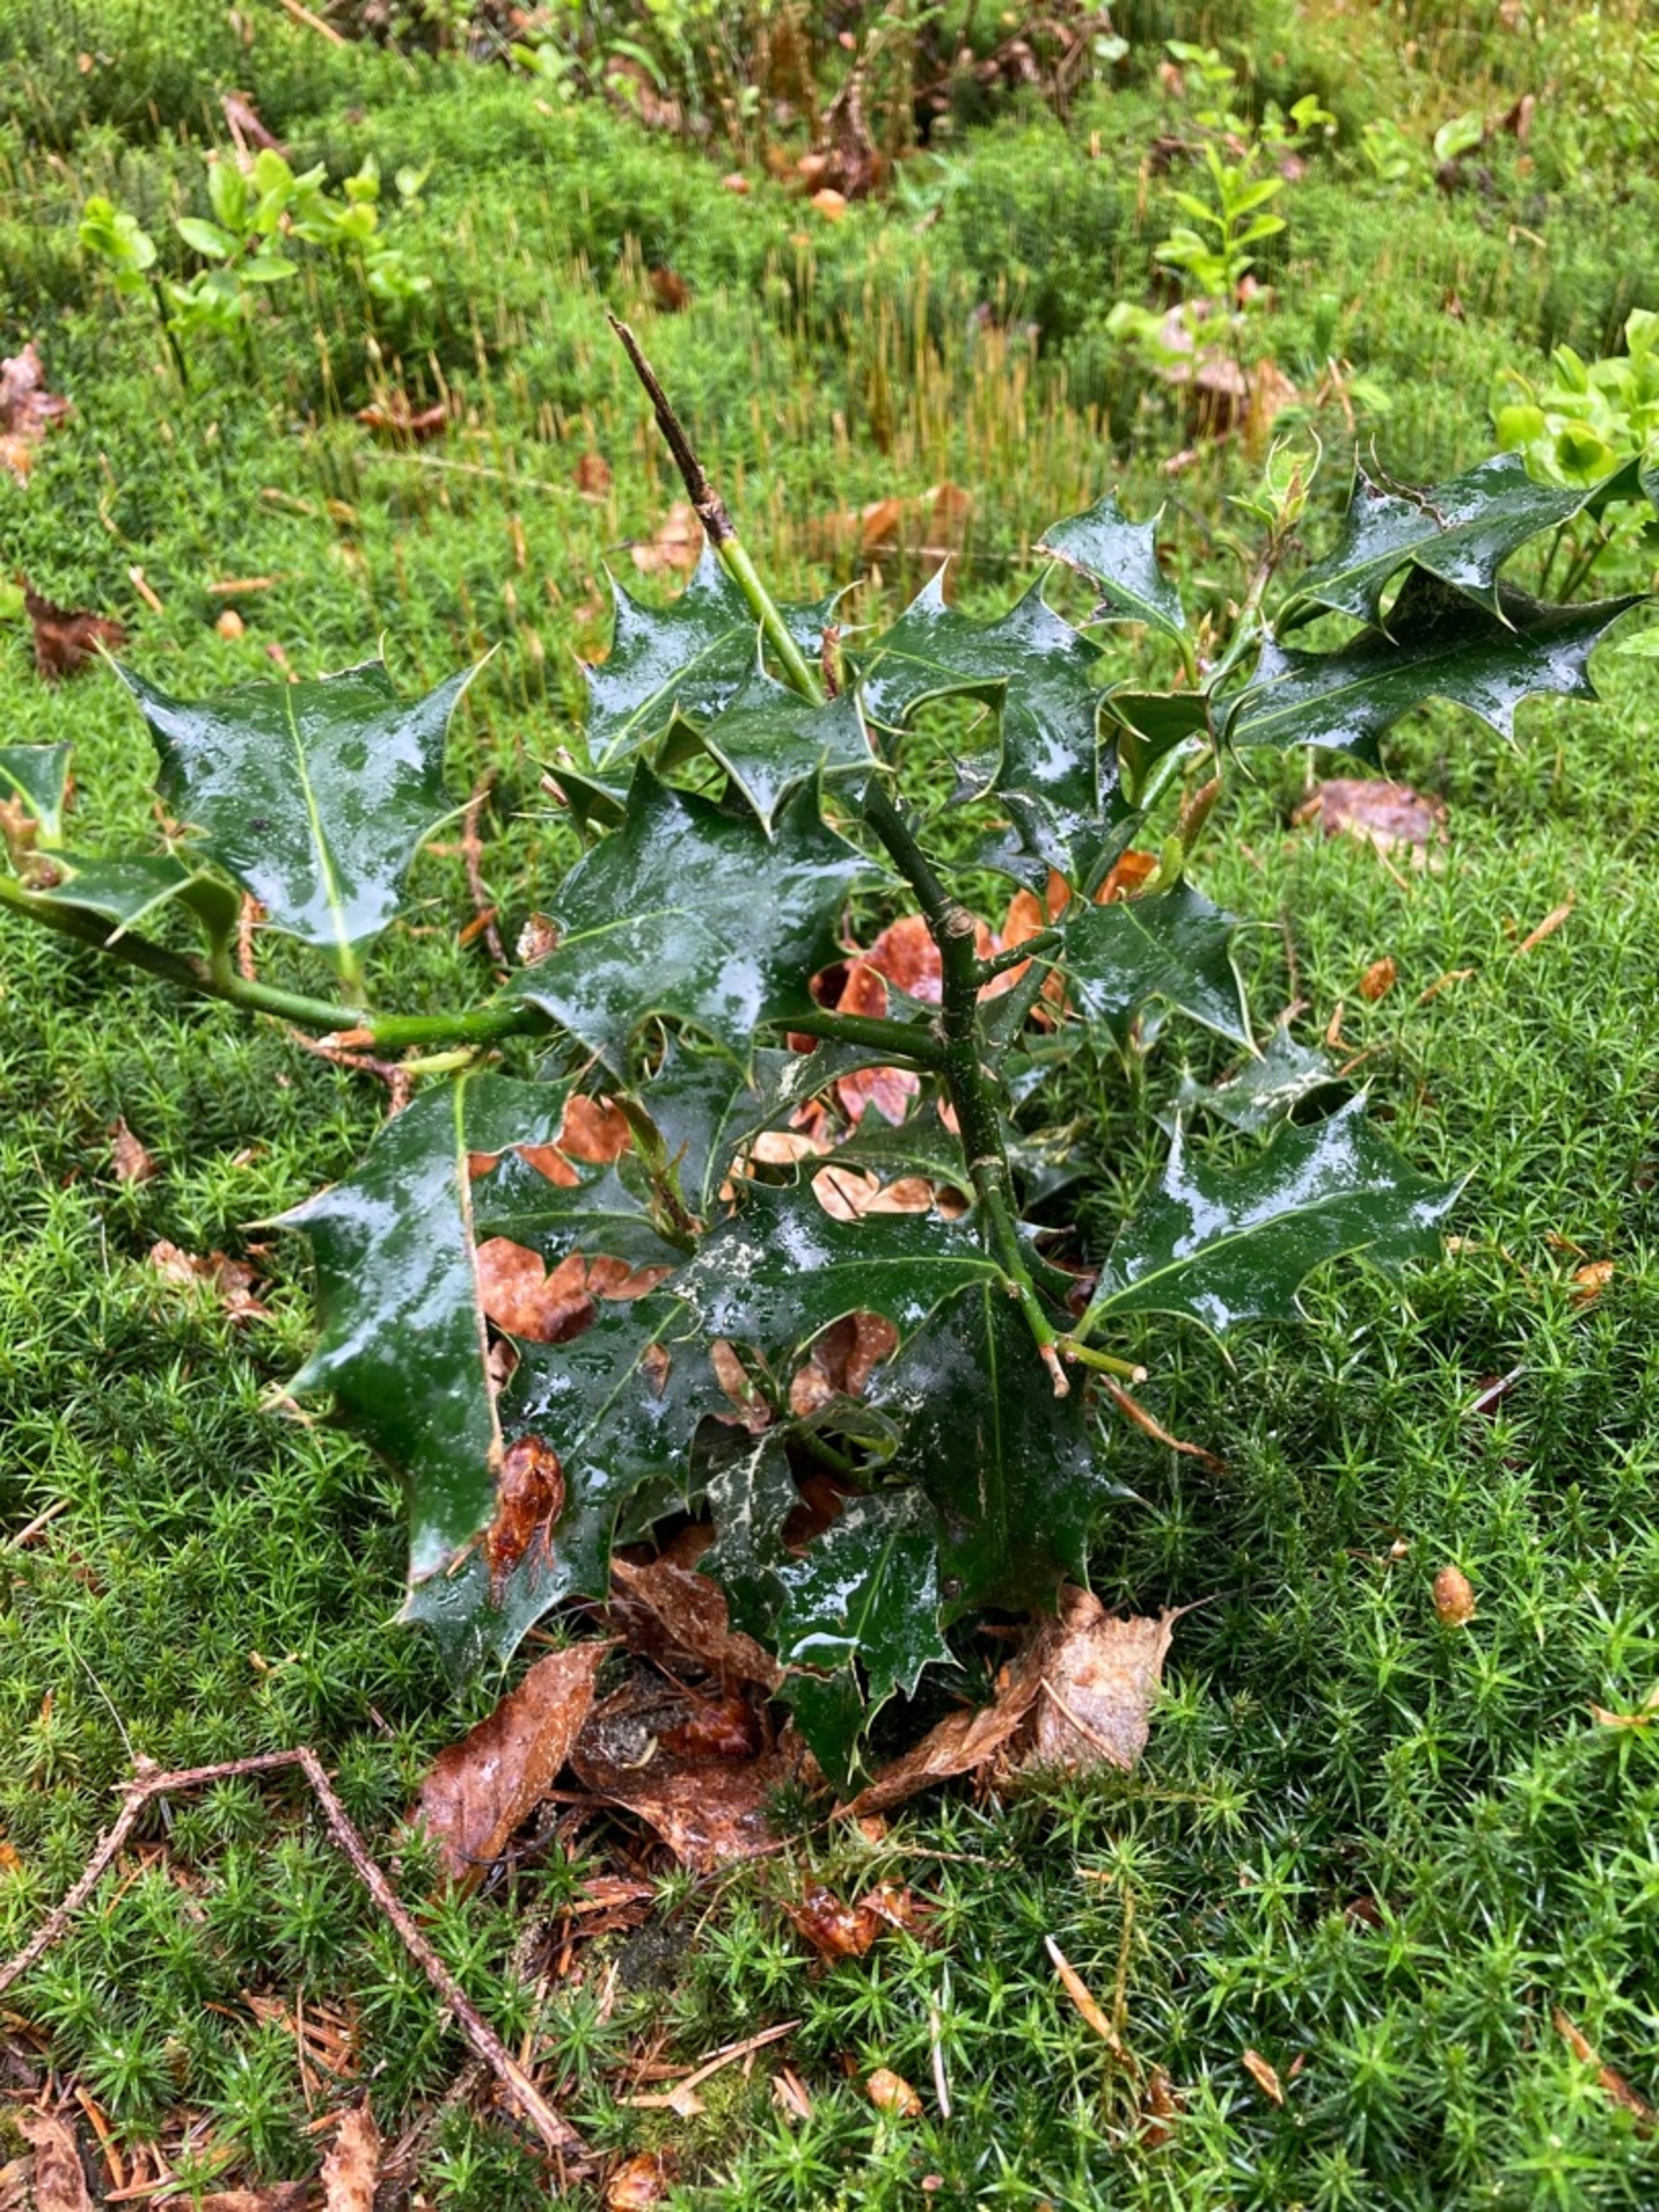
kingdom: Plantae
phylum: Tracheophyta
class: Magnoliopsida
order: Aquifoliales
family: Aquifoliaceae
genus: Ilex
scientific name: Ilex aquifolium
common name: Kristtorn
